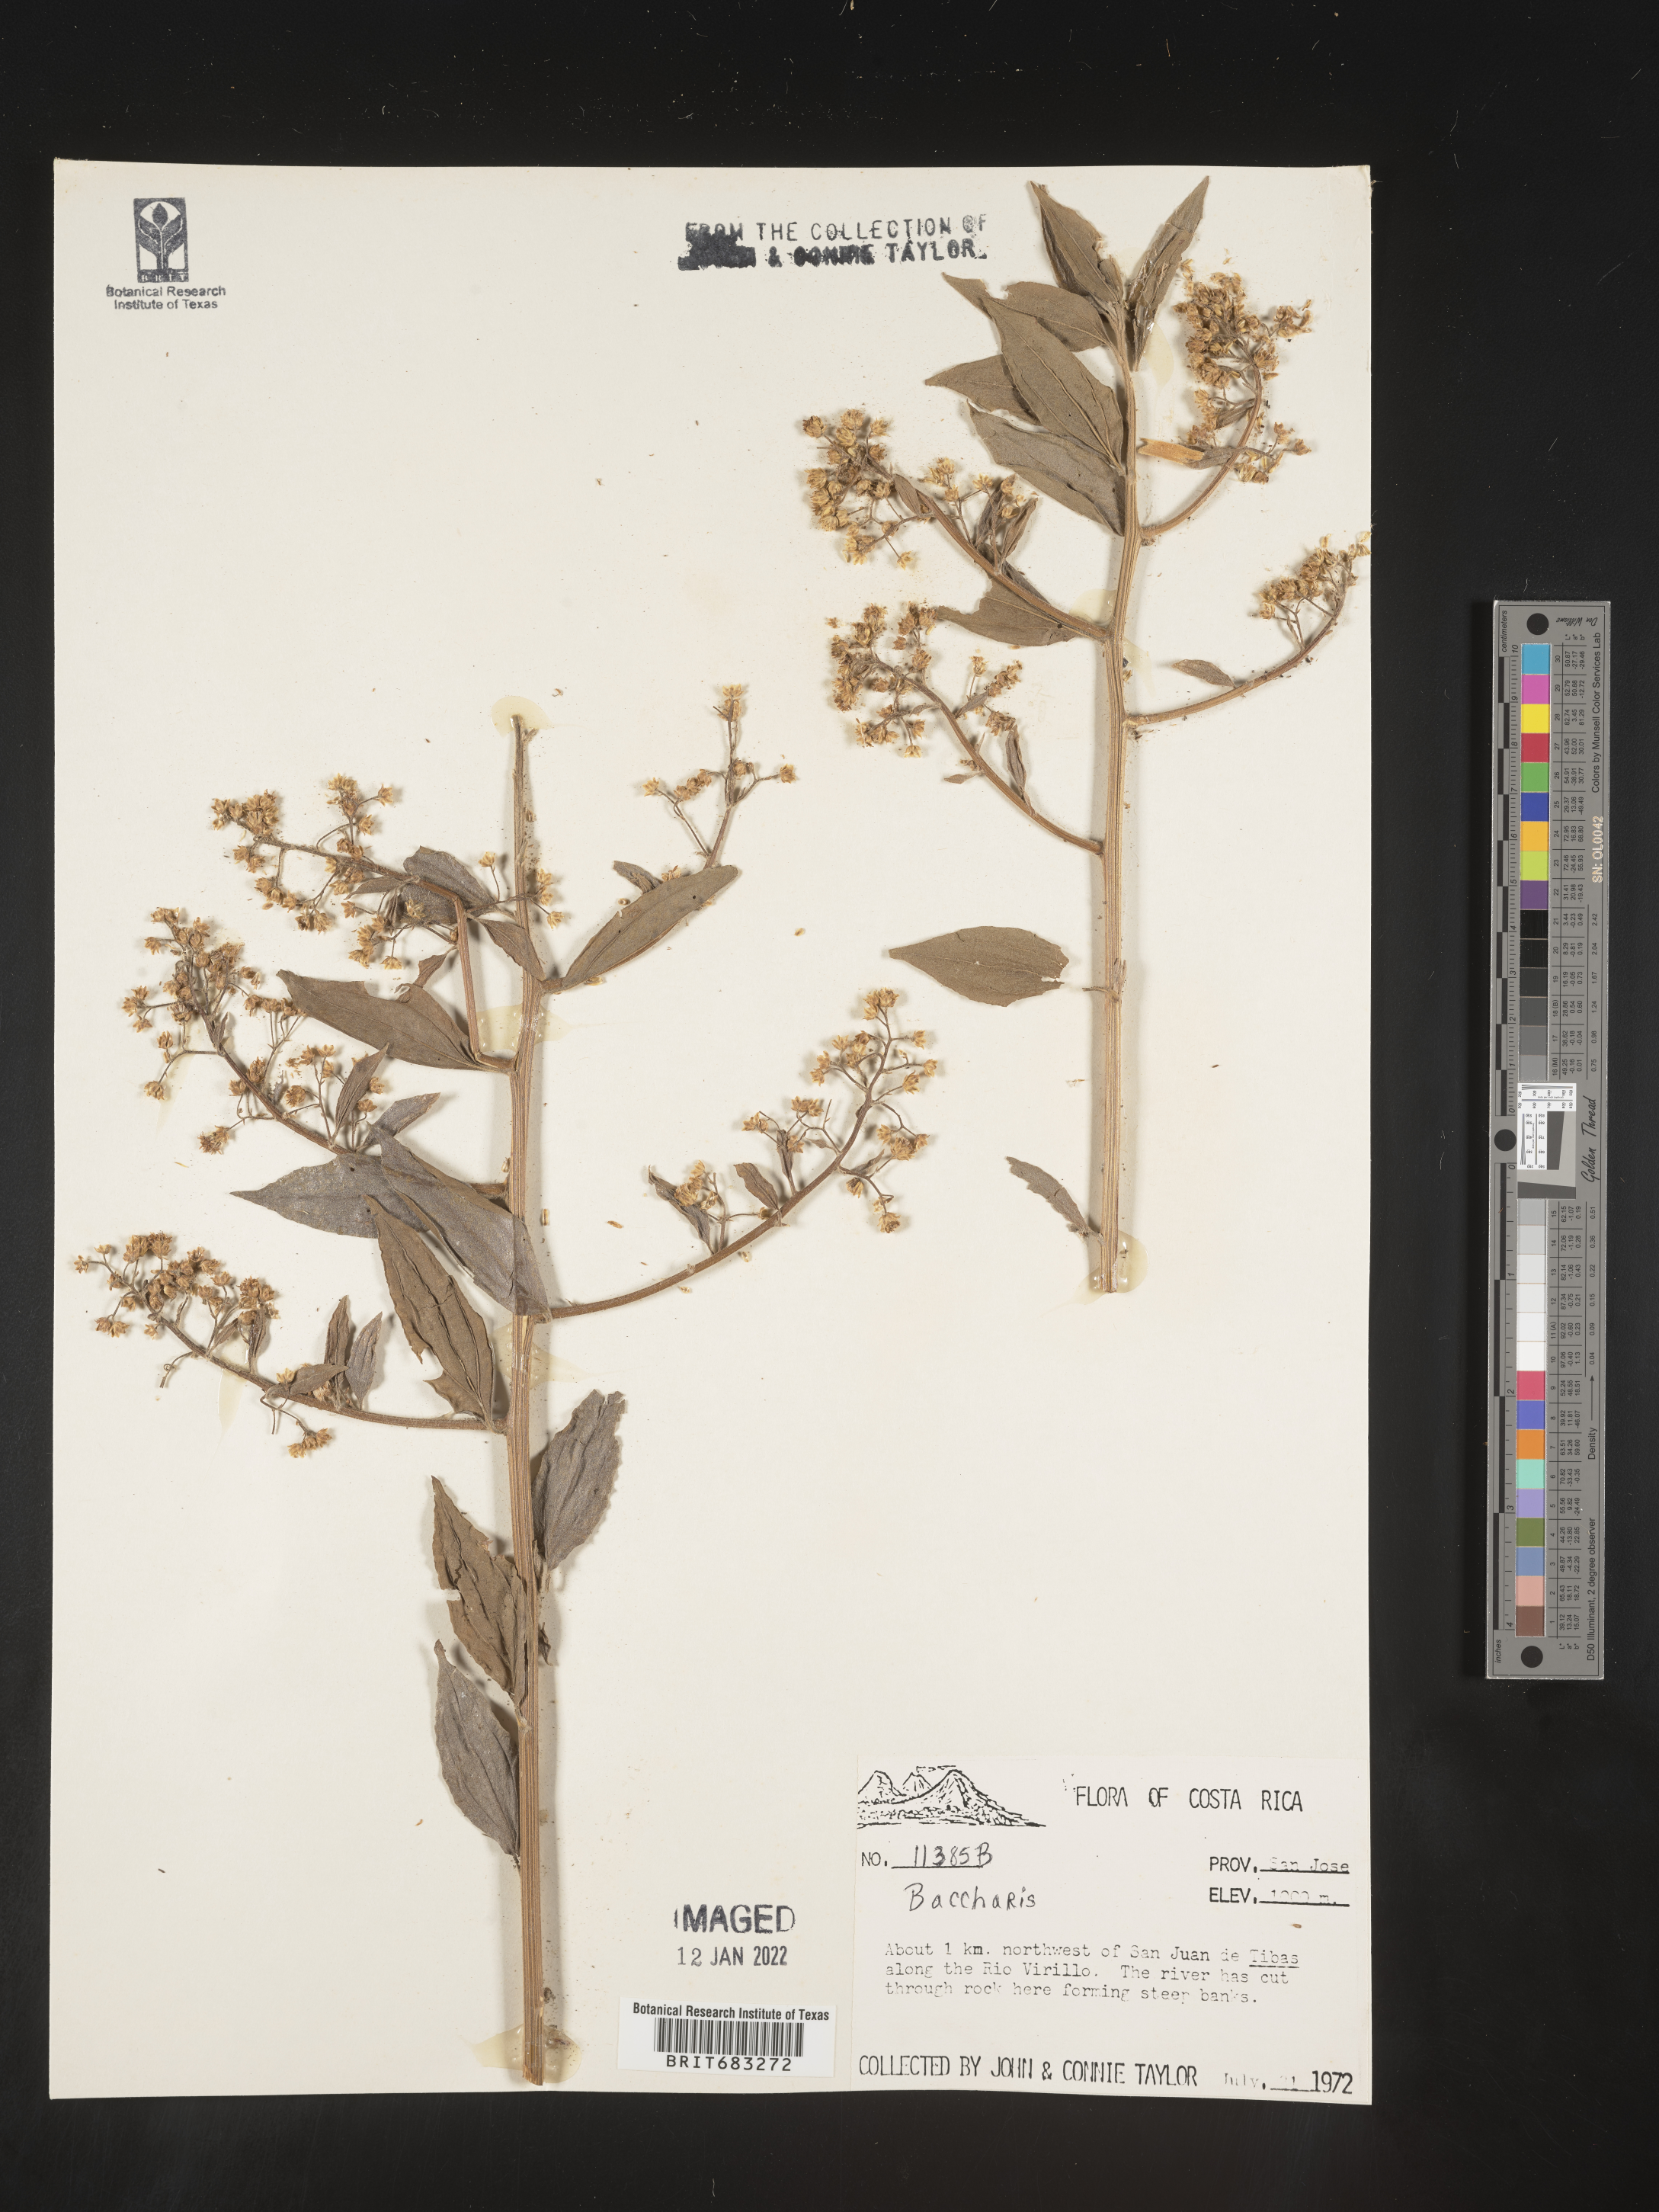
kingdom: Plantae
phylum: Tracheophyta
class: Magnoliopsida
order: Asterales
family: Asteraceae
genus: Baccharis
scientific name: Baccharis trinervis
